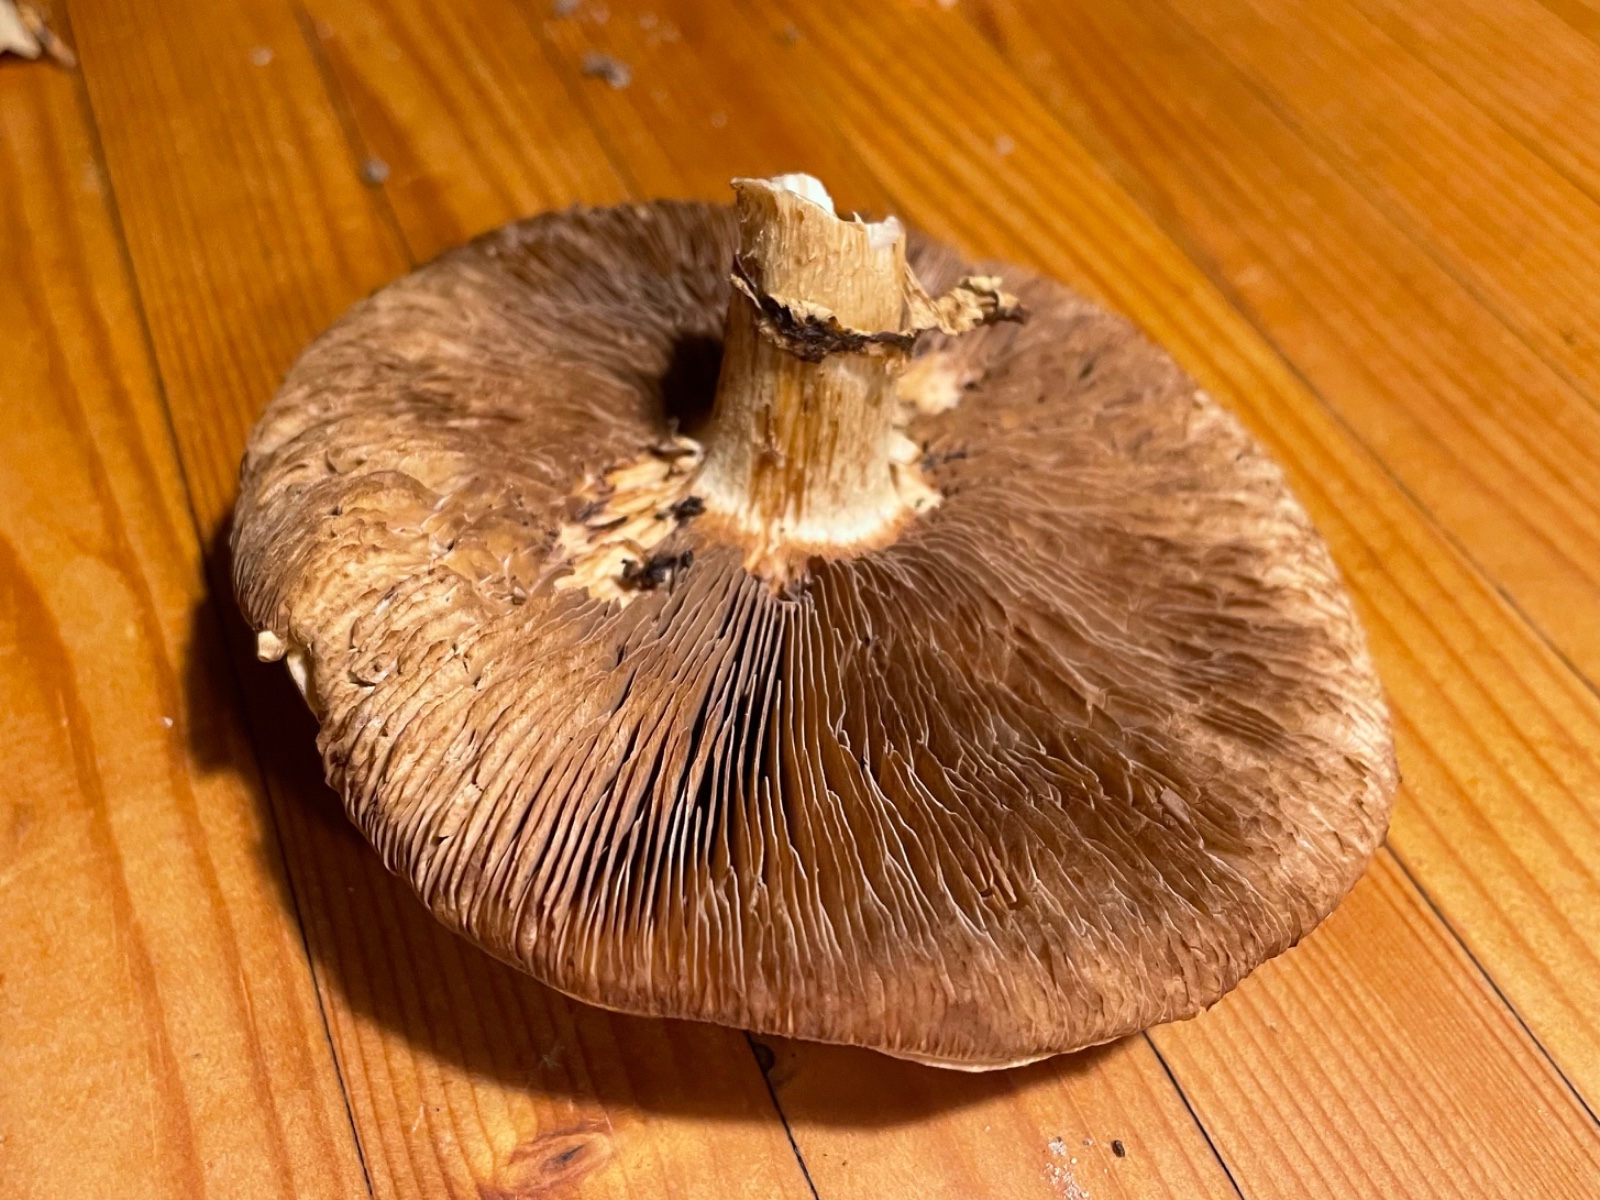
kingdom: Fungi
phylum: Basidiomycota
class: Agaricomycetes
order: Agaricales
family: Hymenogastraceae
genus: Hebeloma
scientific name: Hebeloma radicosum
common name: pælerods-tåreblad
